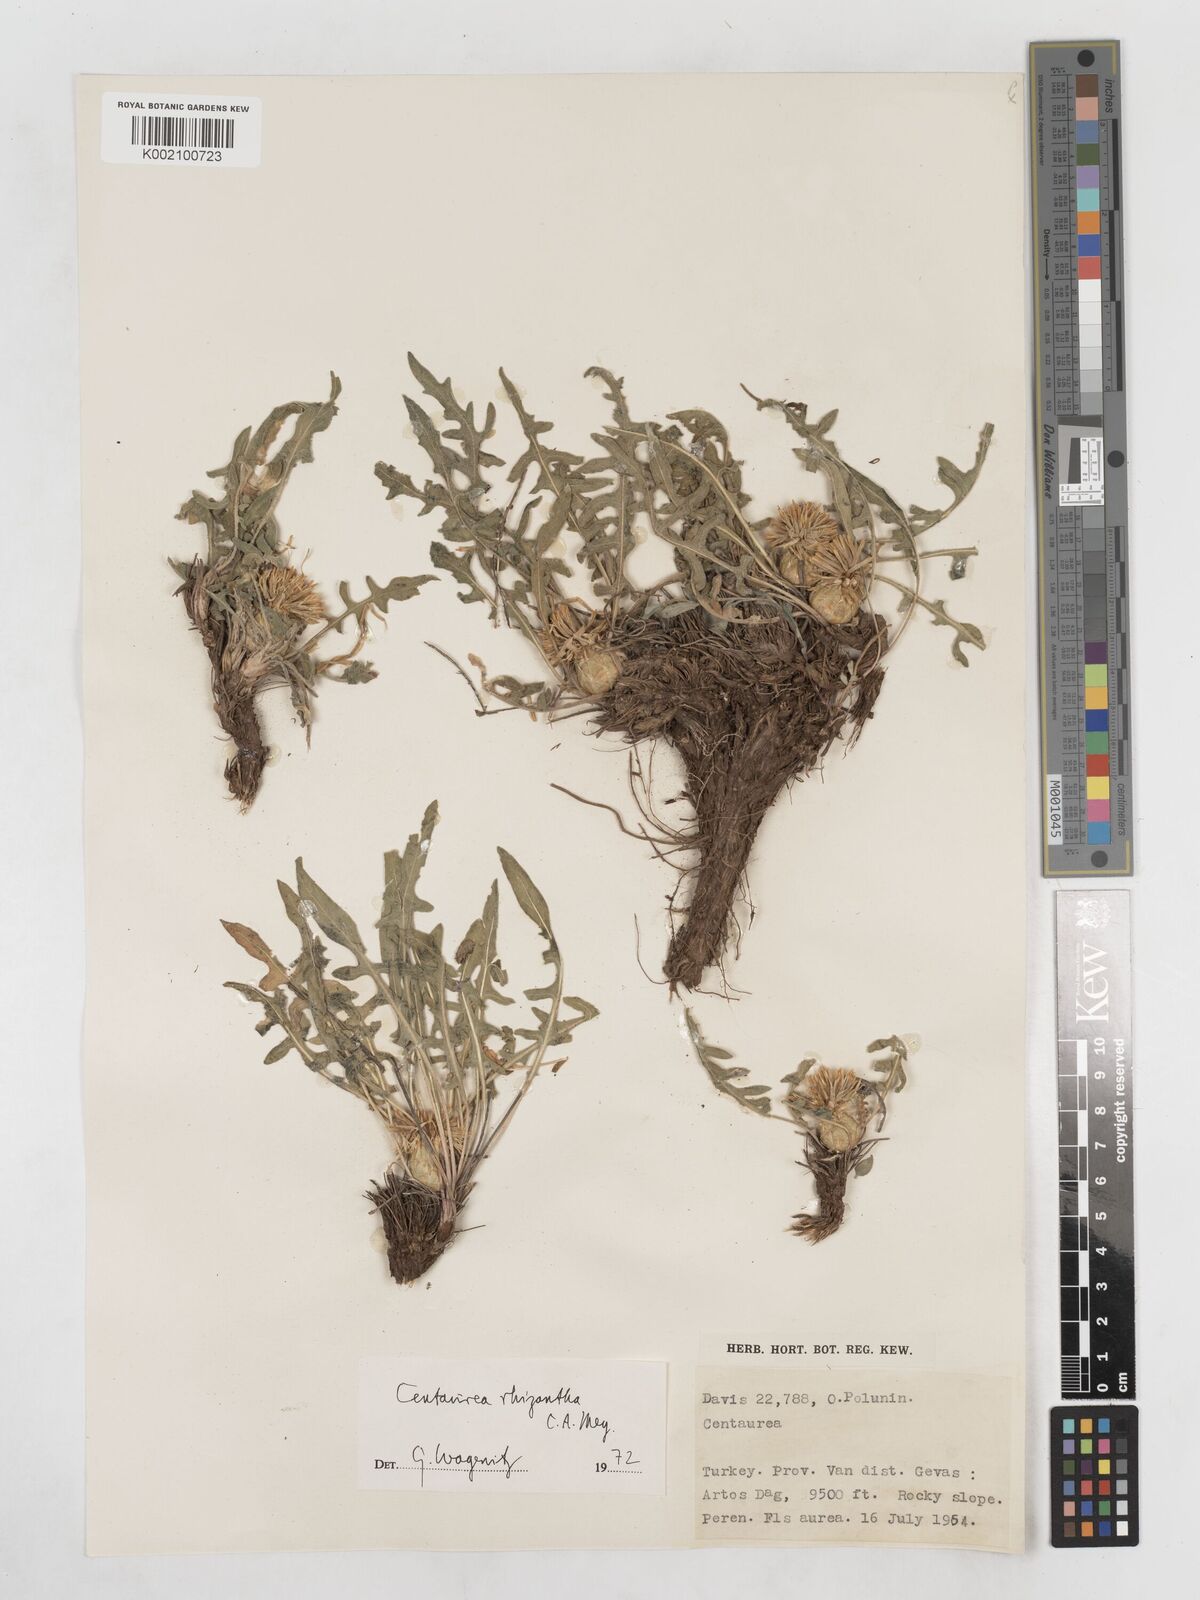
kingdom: Plantae
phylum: Tracheophyta
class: Magnoliopsida
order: Asterales
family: Asteraceae
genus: Centaurea
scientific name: Centaurea rhizantha
